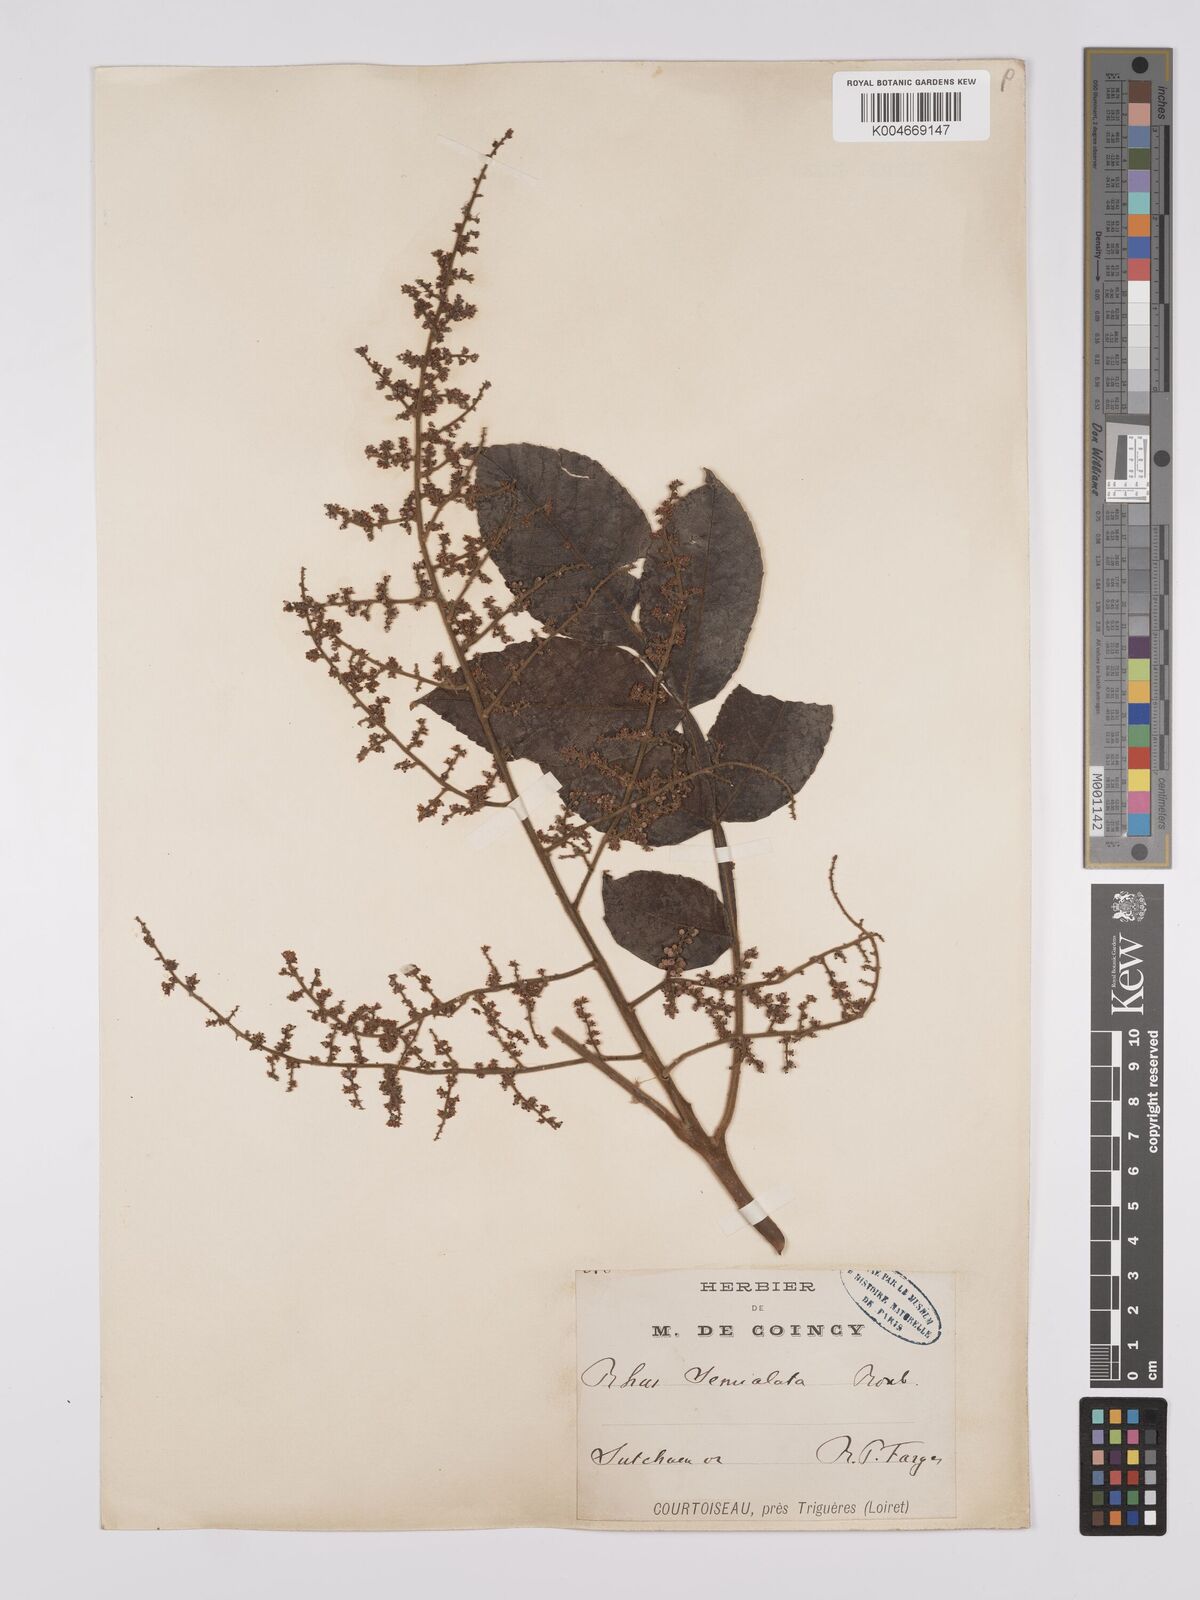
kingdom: Plantae
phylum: Tracheophyta
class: Magnoliopsida
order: Sapindales
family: Anacardiaceae
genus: Rhus
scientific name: Rhus chinensis
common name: Chinese gall
